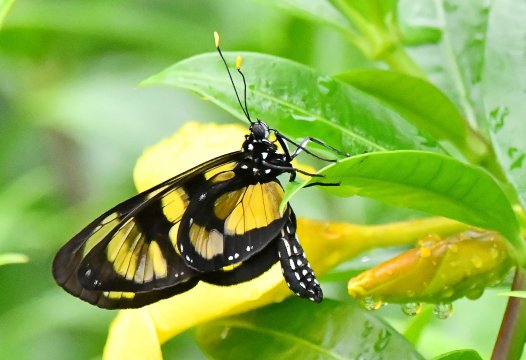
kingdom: Animalia
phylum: Arthropoda
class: Insecta
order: Lepidoptera
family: Nymphalidae
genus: Methona
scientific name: Methona confusa
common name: Confusa Tigerwing
